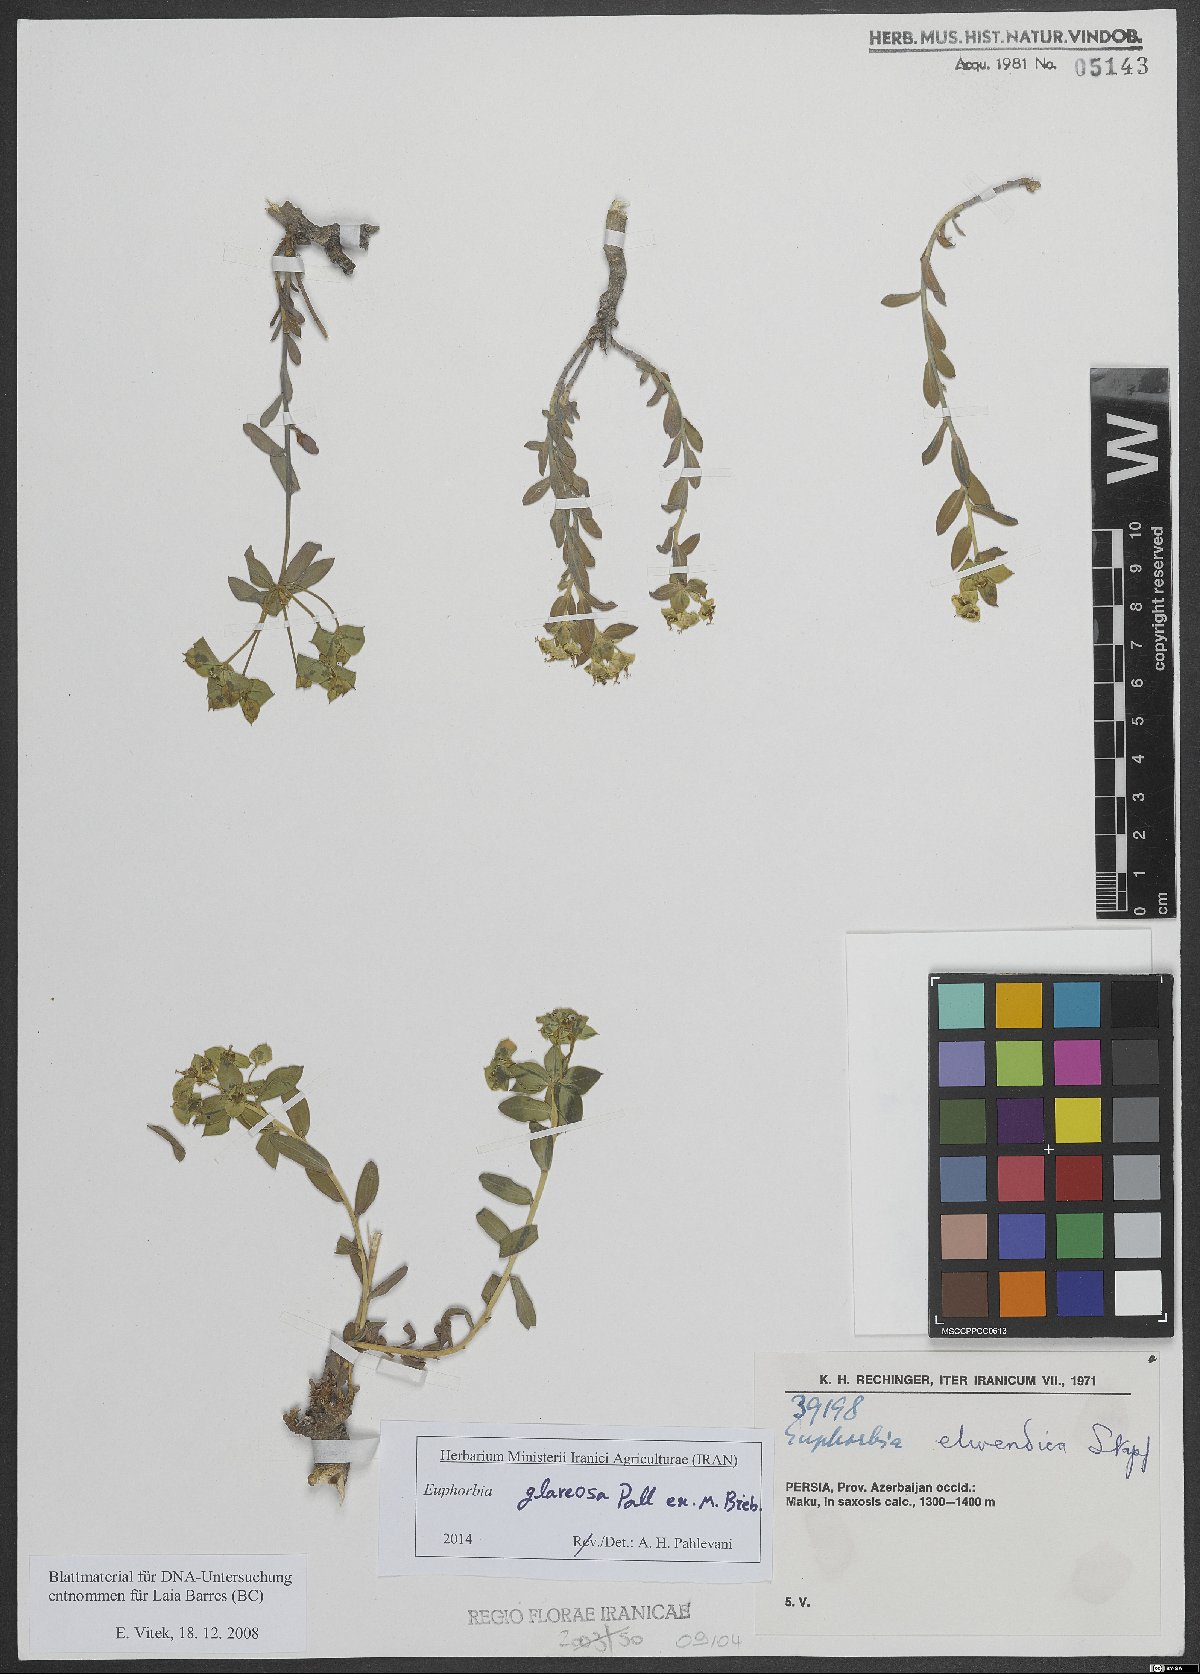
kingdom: Plantae
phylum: Tracheophyta
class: Magnoliopsida
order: Malpighiales
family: Euphorbiaceae
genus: Euphorbia
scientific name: Euphorbia glareosa
